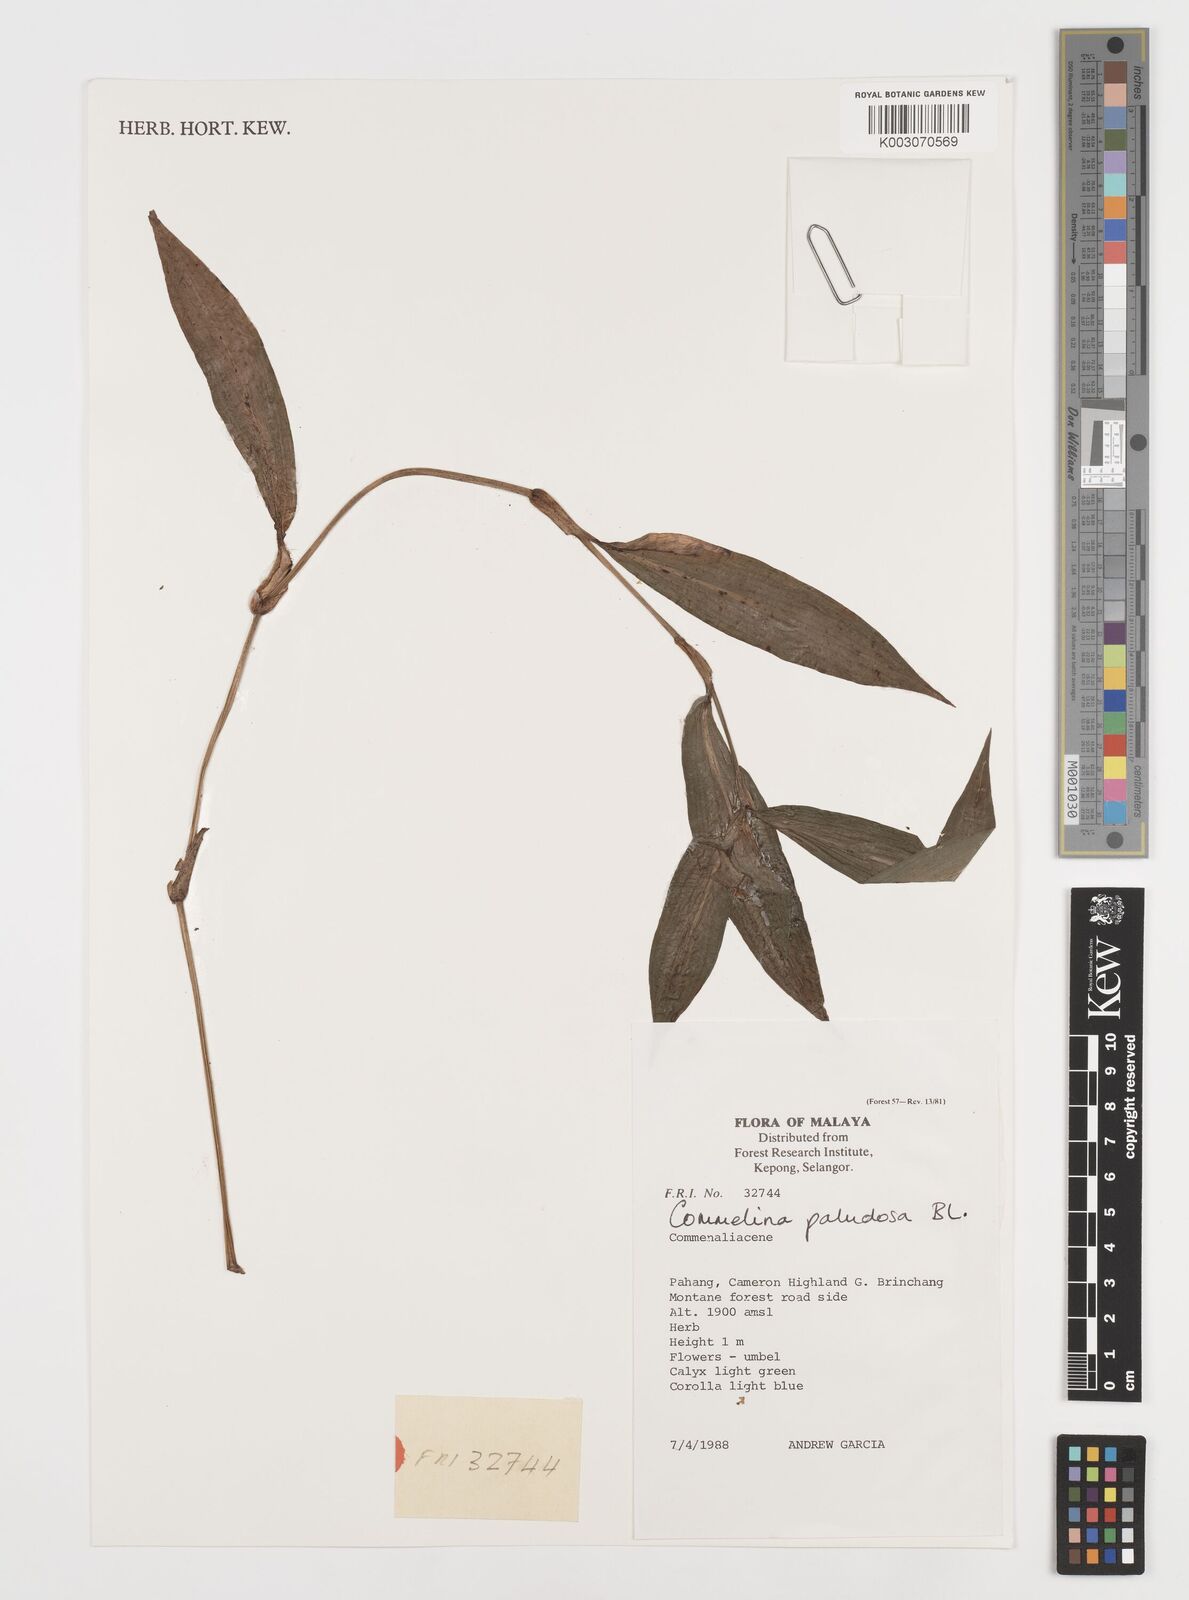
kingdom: Plantae
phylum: Tracheophyta
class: Liliopsida
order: Commelinales
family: Commelinaceae
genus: Commelina
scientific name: Commelina paludosa
